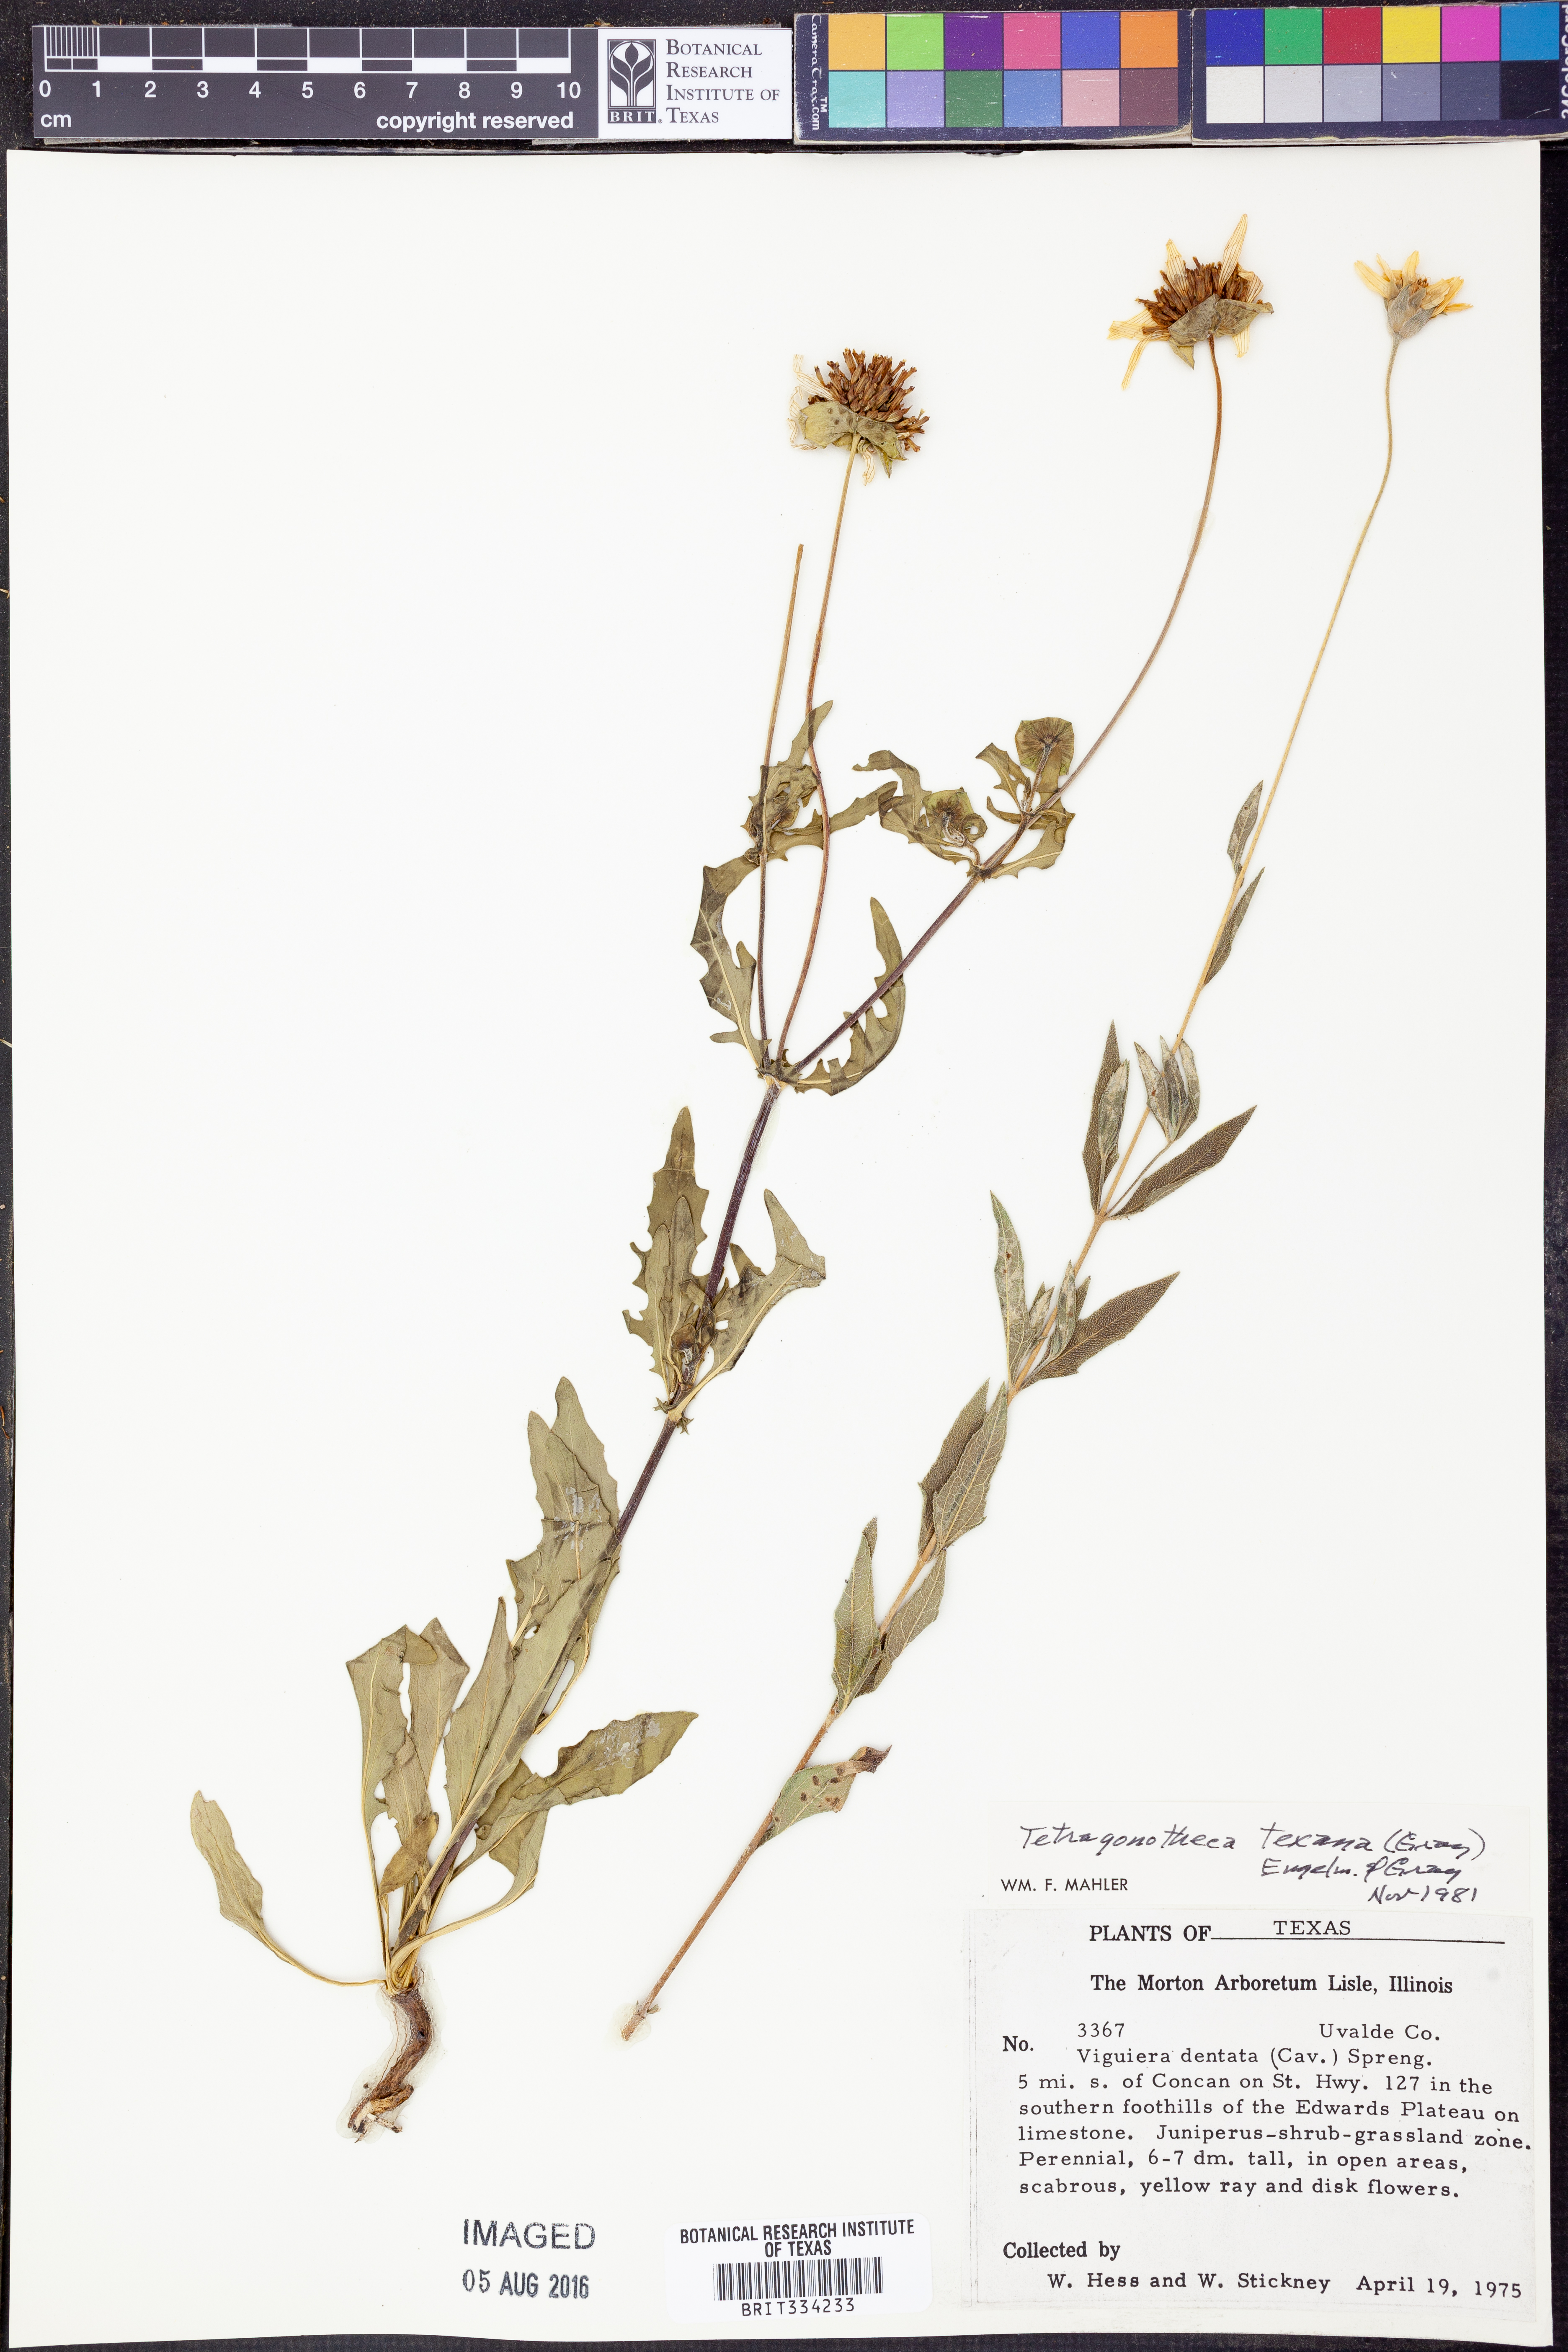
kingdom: Plantae
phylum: Tracheophyta
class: Magnoliopsida
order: Asterales
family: Asteraceae
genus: Tetragonotheca
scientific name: Tetragonotheca texana
